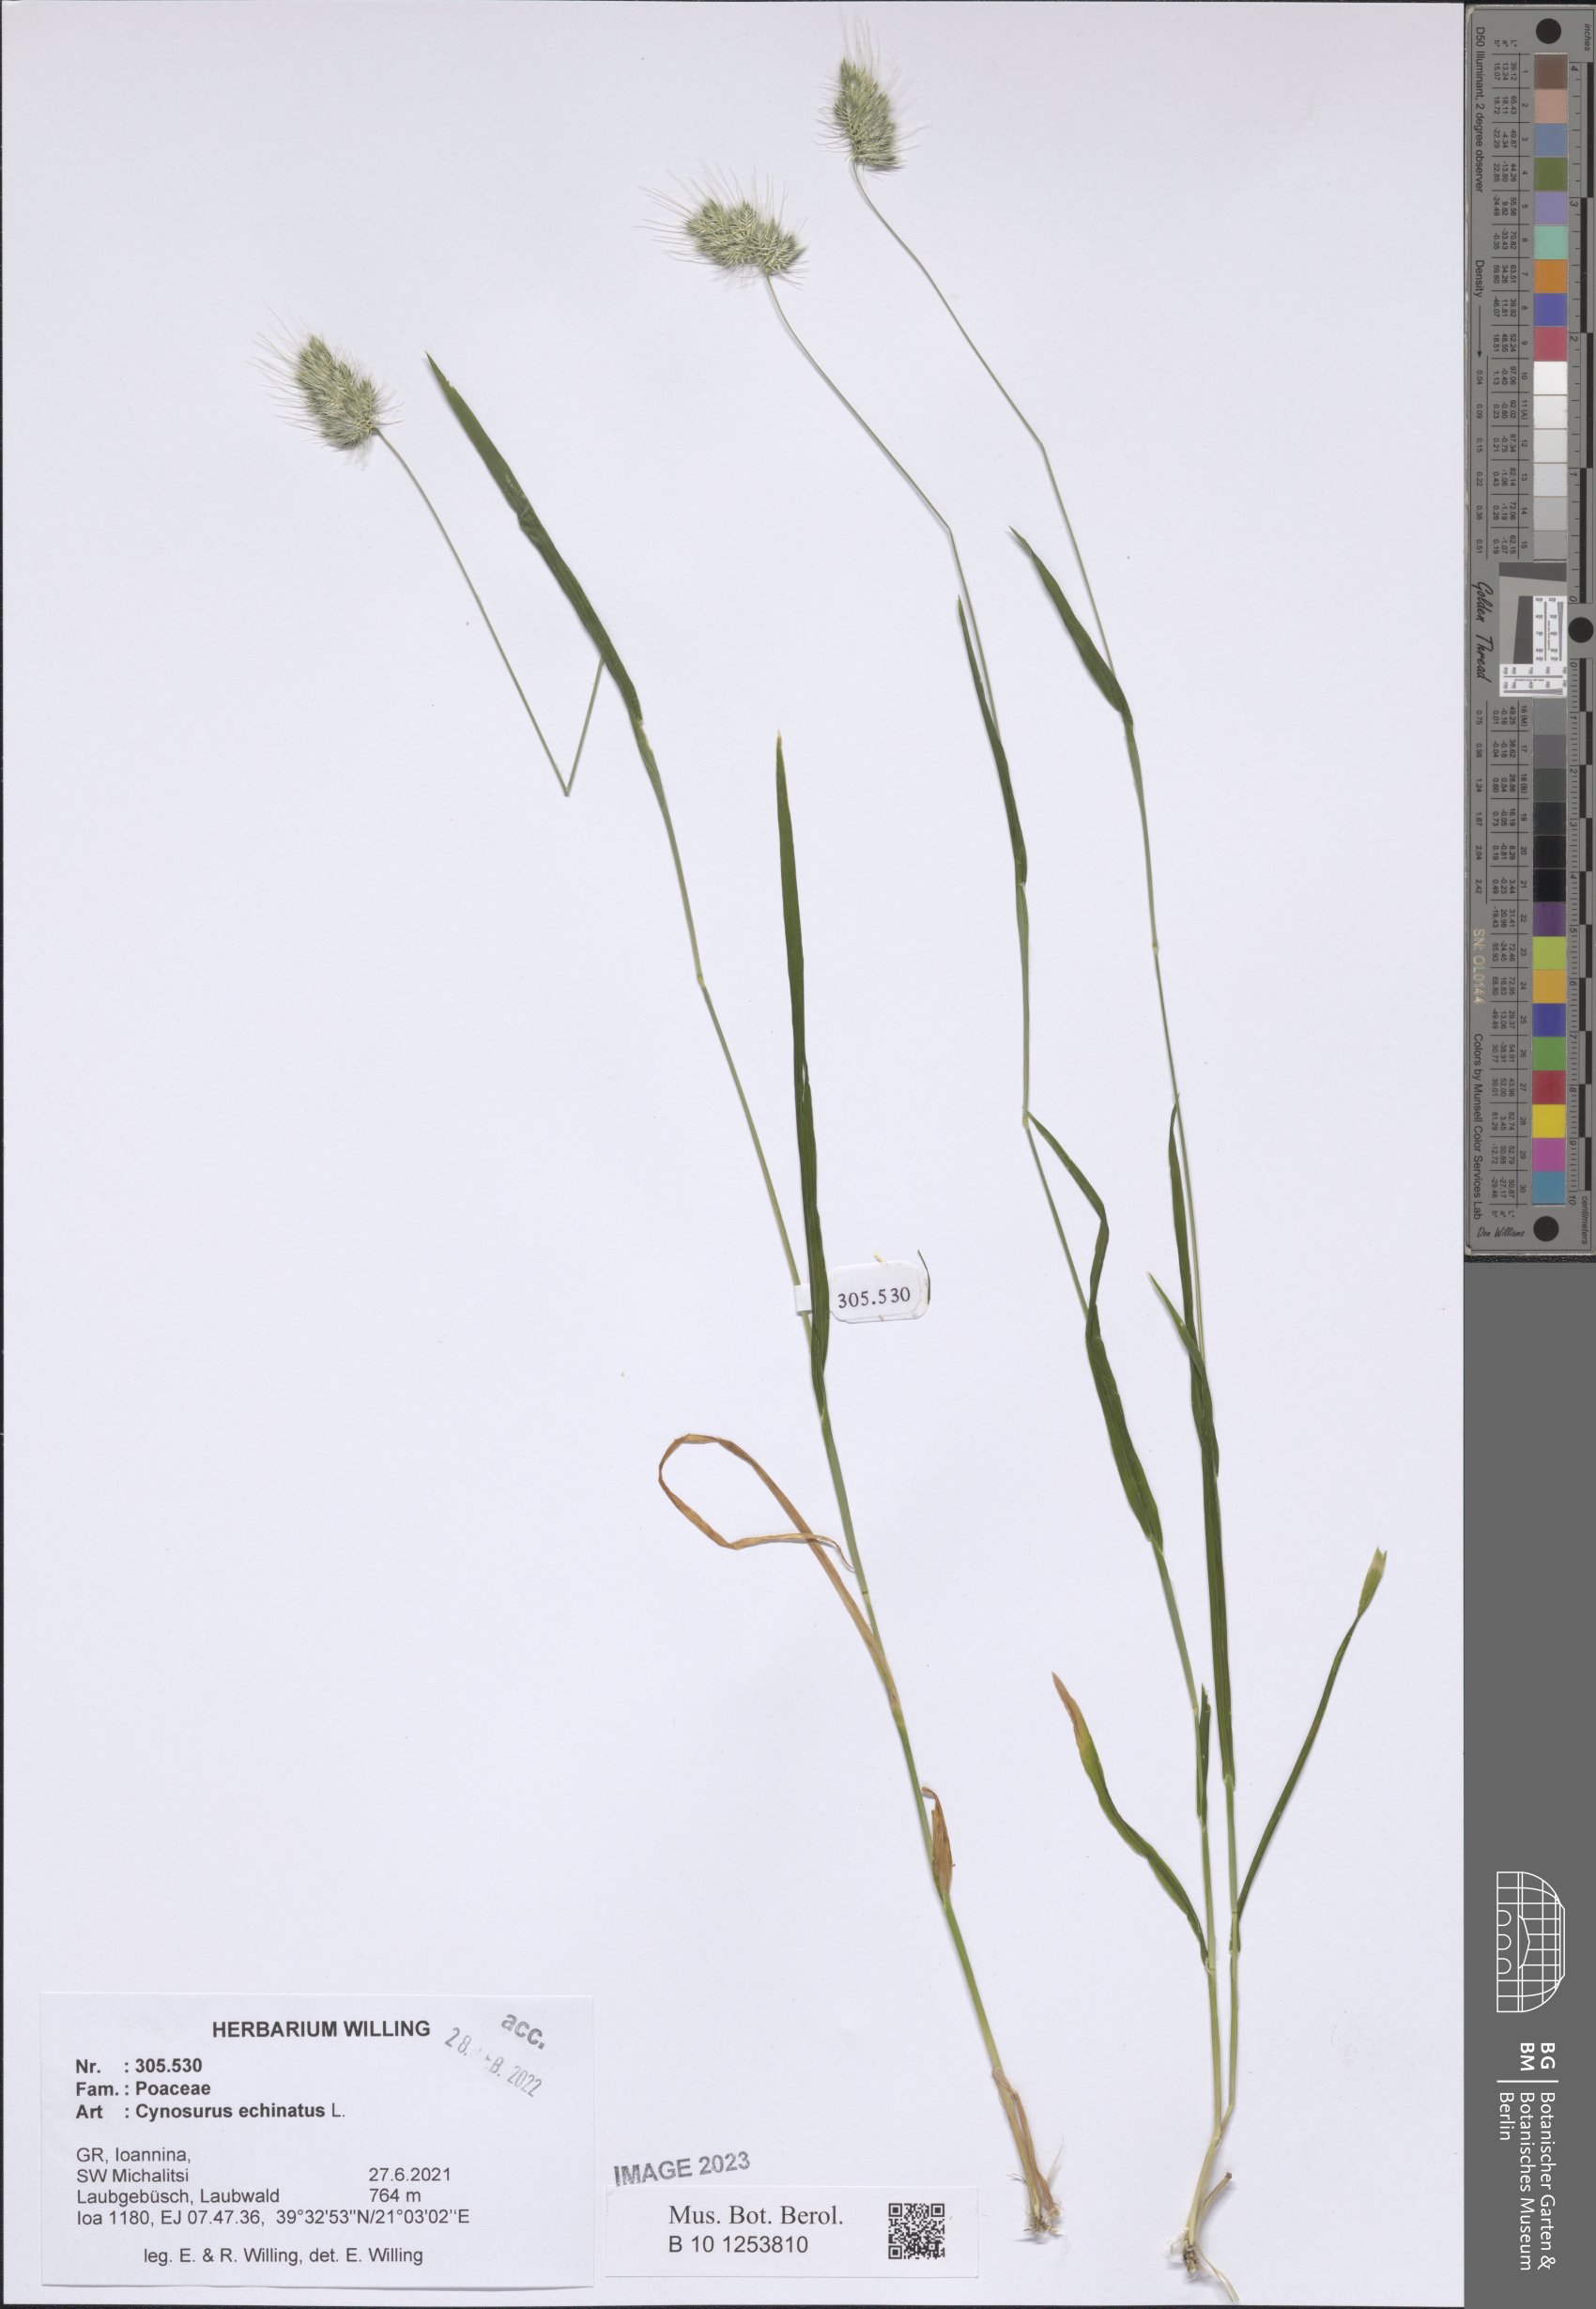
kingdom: Plantae
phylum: Tracheophyta
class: Liliopsida
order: Poales
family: Poaceae
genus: Cynosurus
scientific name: Cynosurus echinatus
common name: Rough dog's-tail
